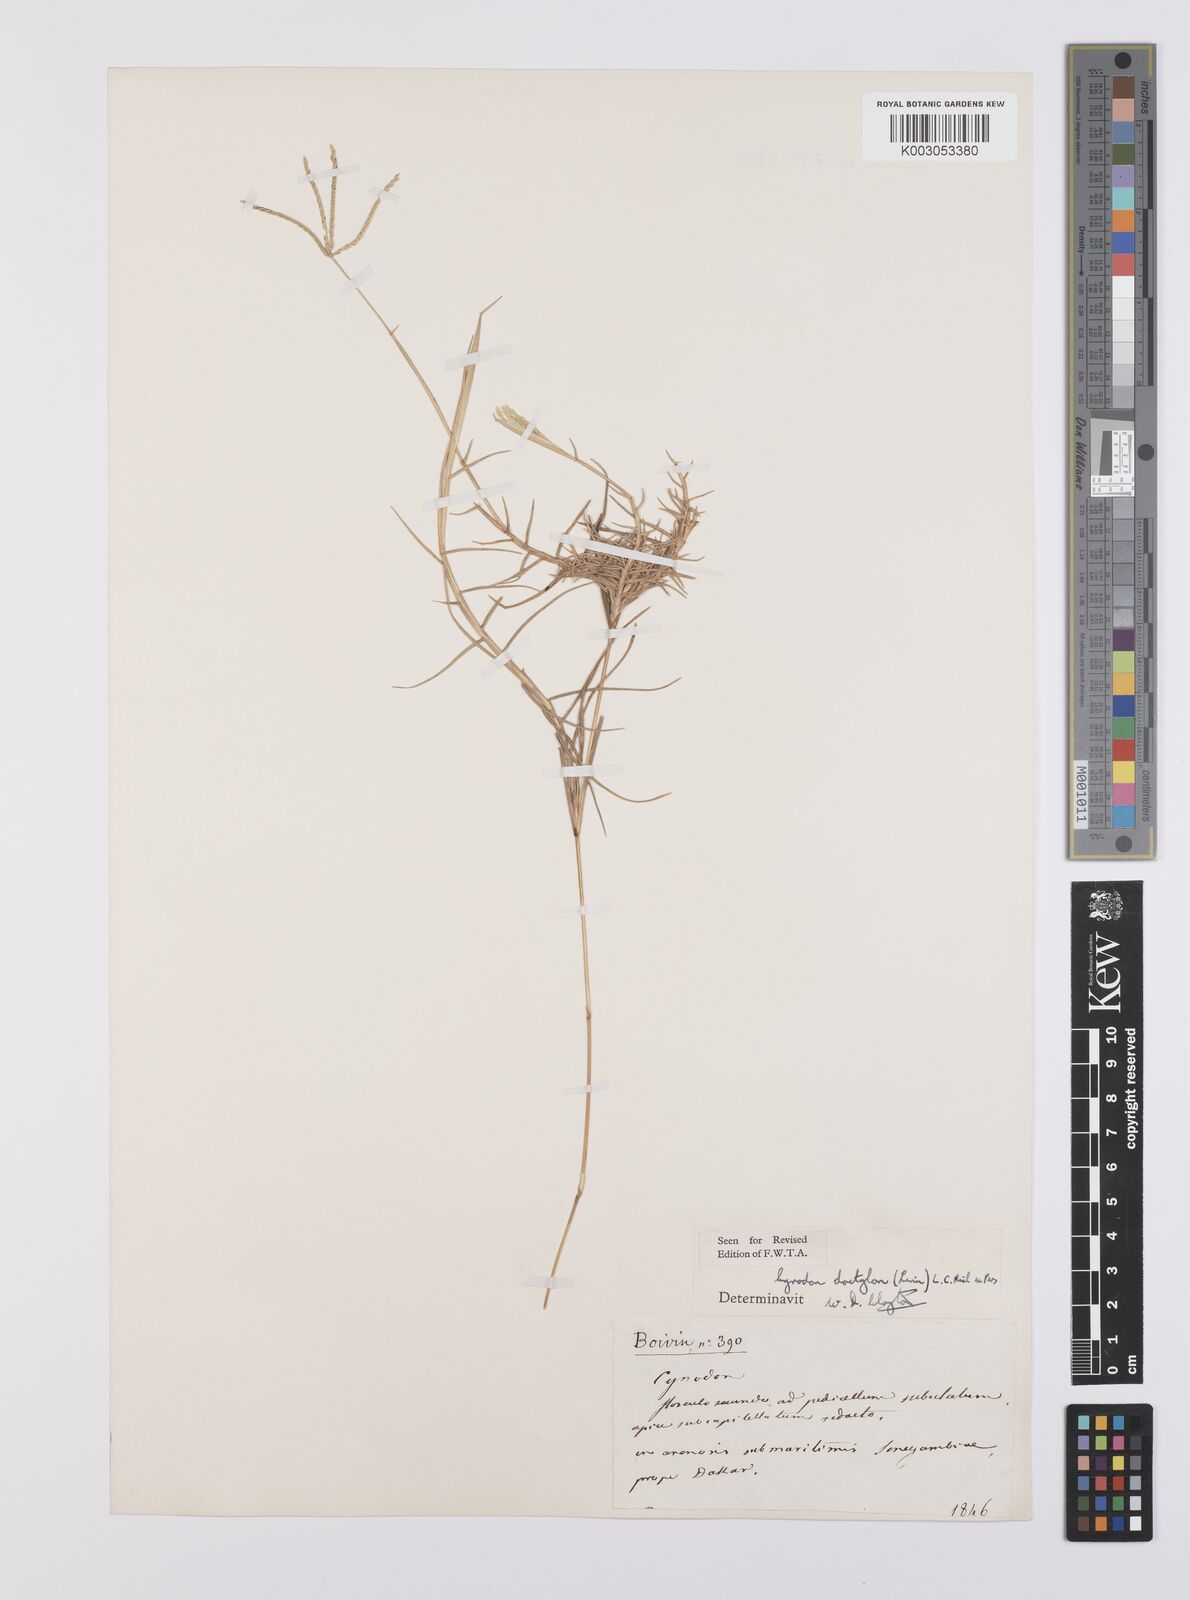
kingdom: Plantae
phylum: Tracheophyta
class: Liliopsida
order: Poales
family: Poaceae
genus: Cynodon
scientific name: Cynodon dactylon
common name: Bermuda grass
